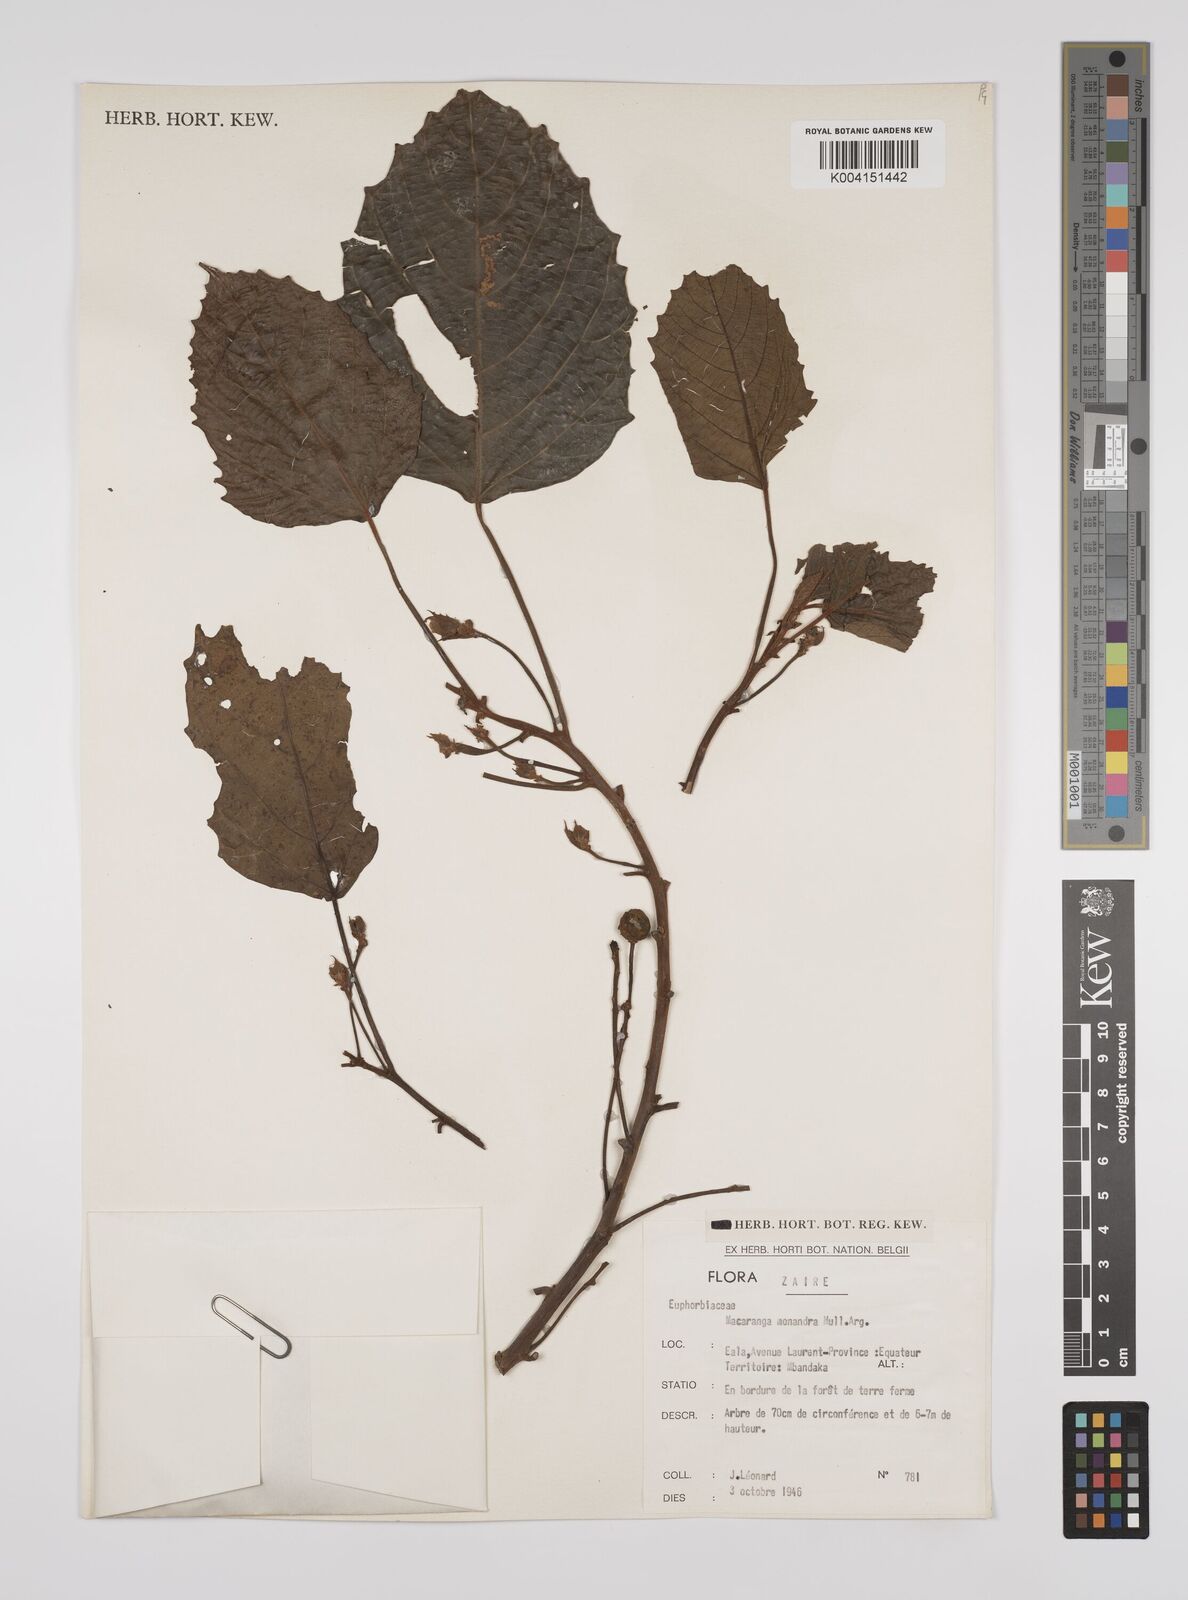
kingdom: Plantae
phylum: Tracheophyta
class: Magnoliopsida
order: Malpighiales
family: Euphorbiaceae
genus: Macaranga
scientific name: Macaranga monandra
